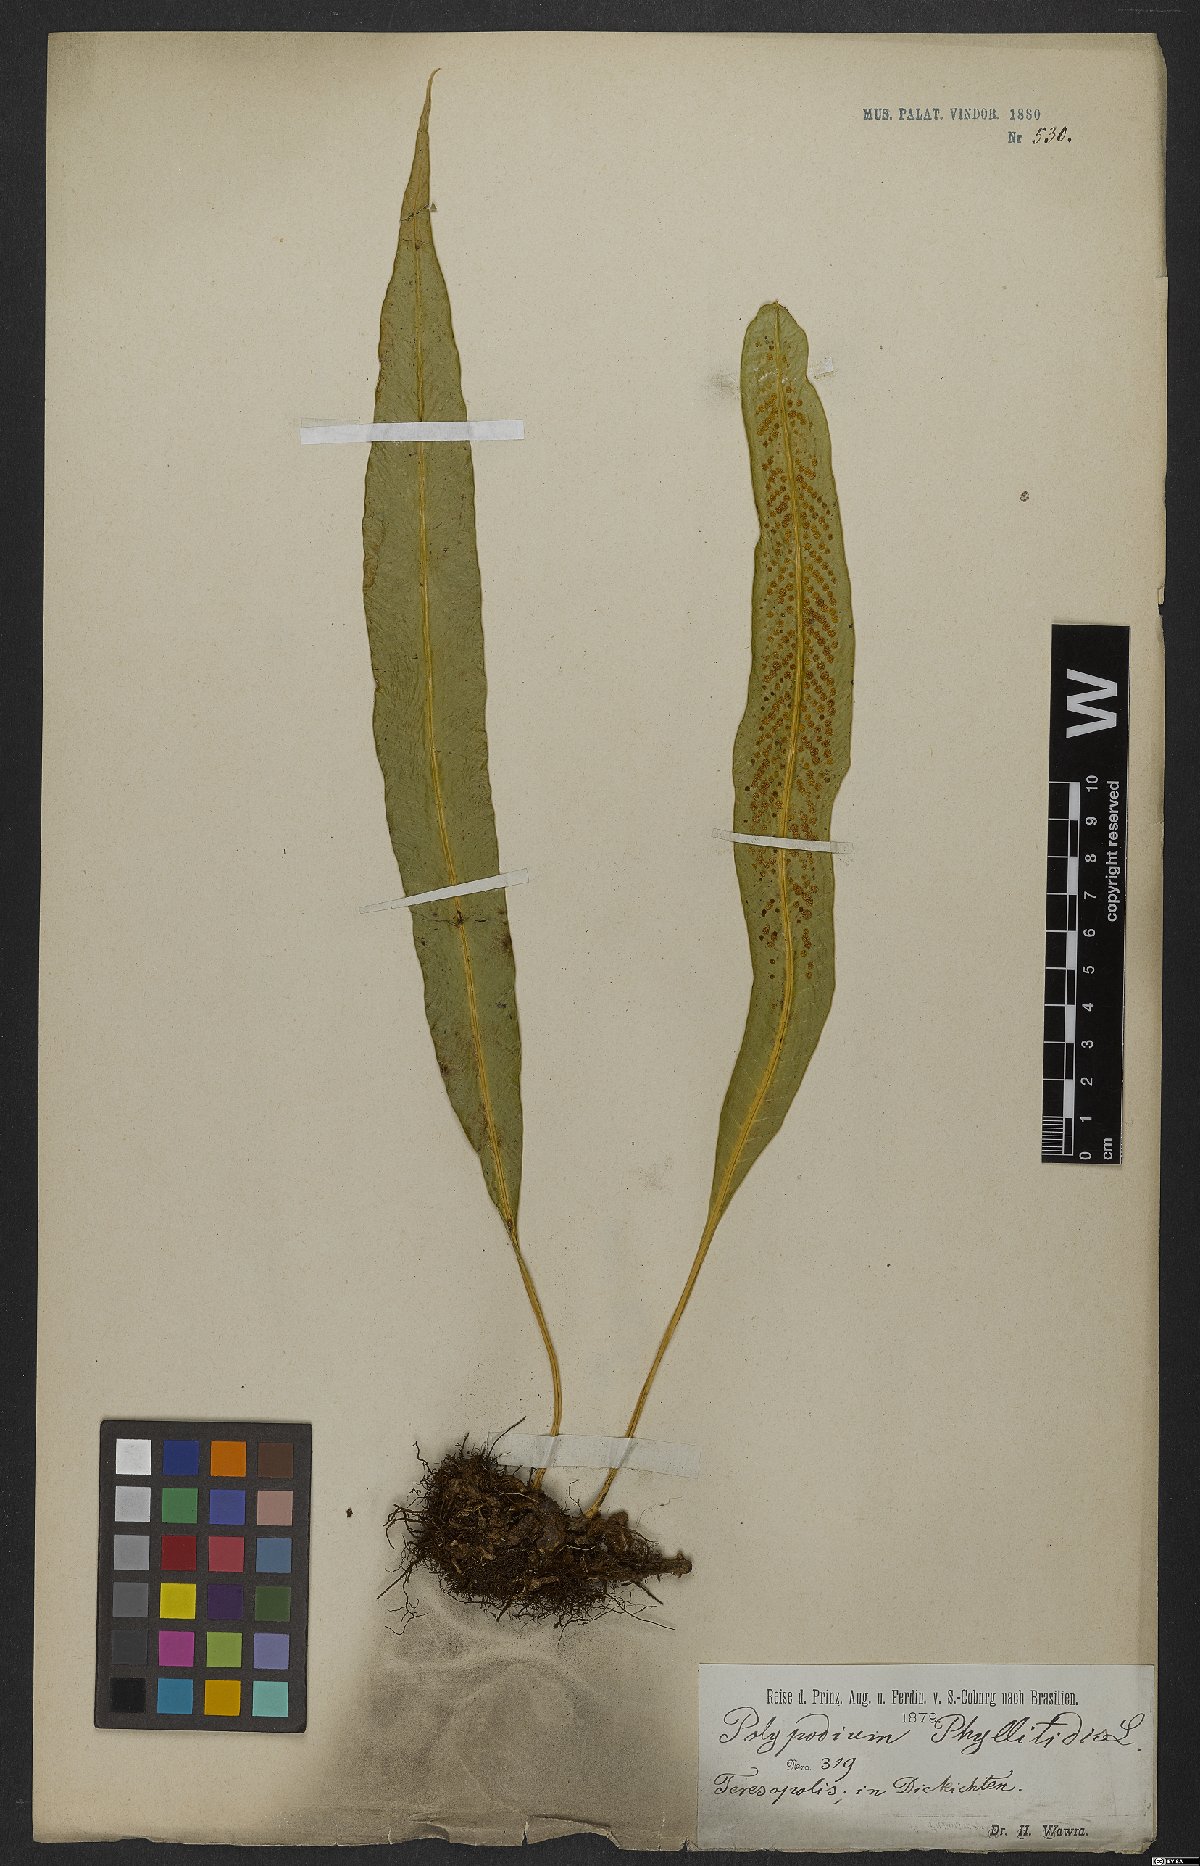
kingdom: Plantae
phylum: Tracheophyta
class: Polypodiopsida
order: Polypodiales
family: Polypodiaceae
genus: Campyloneurum
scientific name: Campyloneurum phyllitidis
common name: Cow-tongue fern
